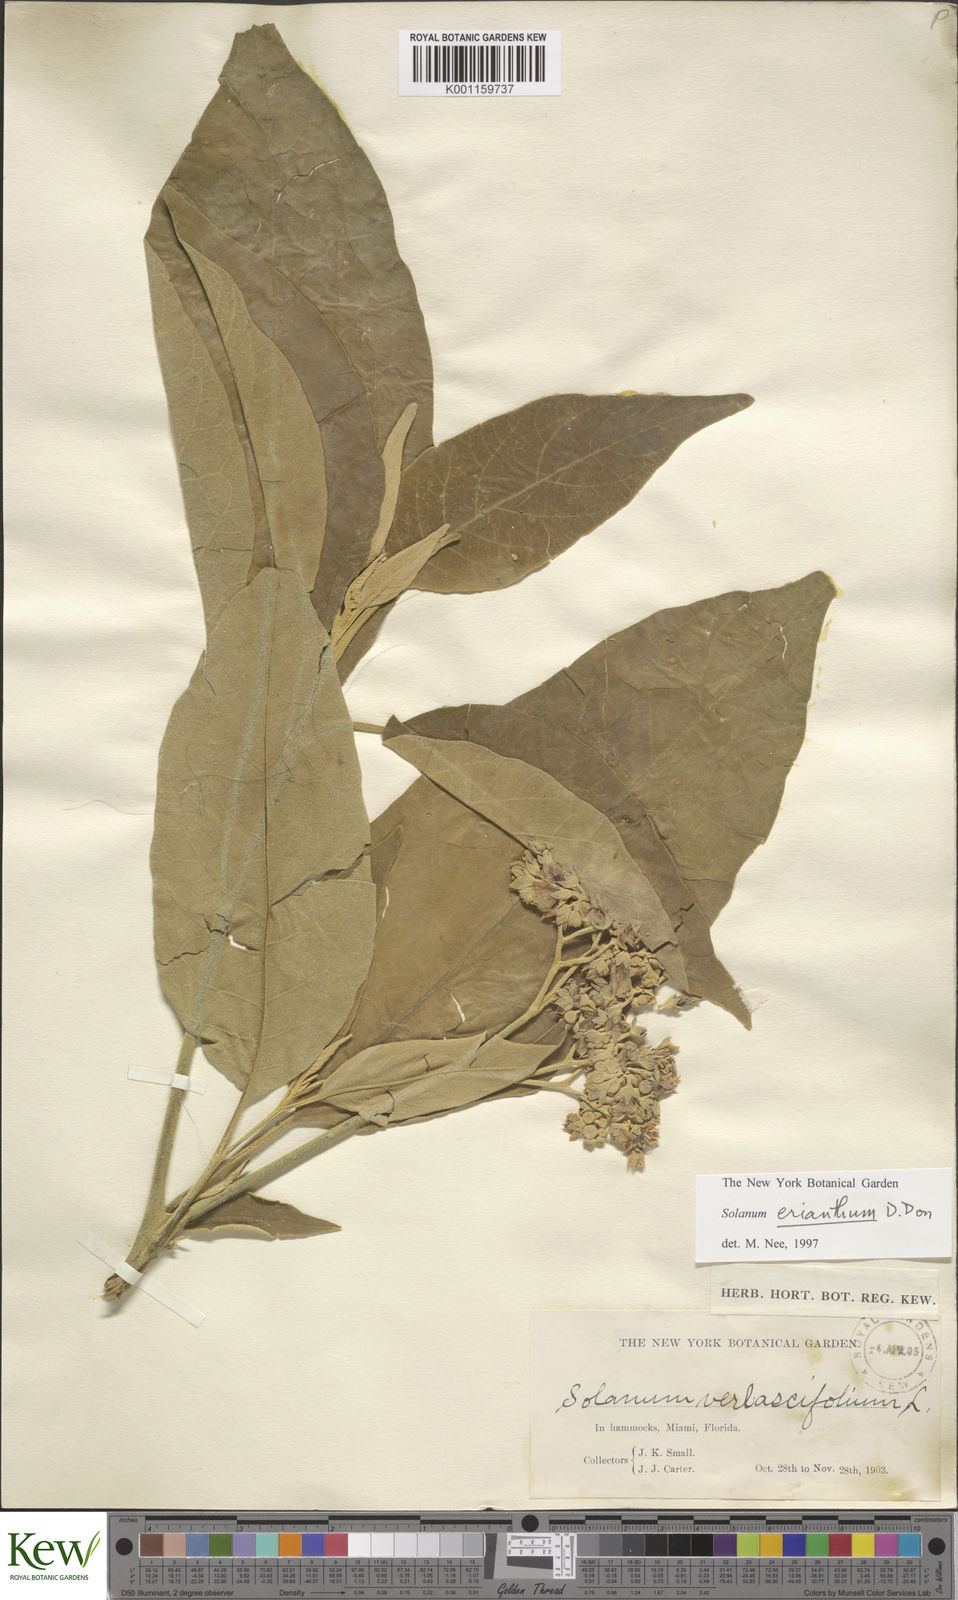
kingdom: Plantae
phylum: Tracheophyta
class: Magnoliopsida
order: Solanales
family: Solanaceae
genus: Solanum
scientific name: Solanum donianum
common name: Mullein nightshade
